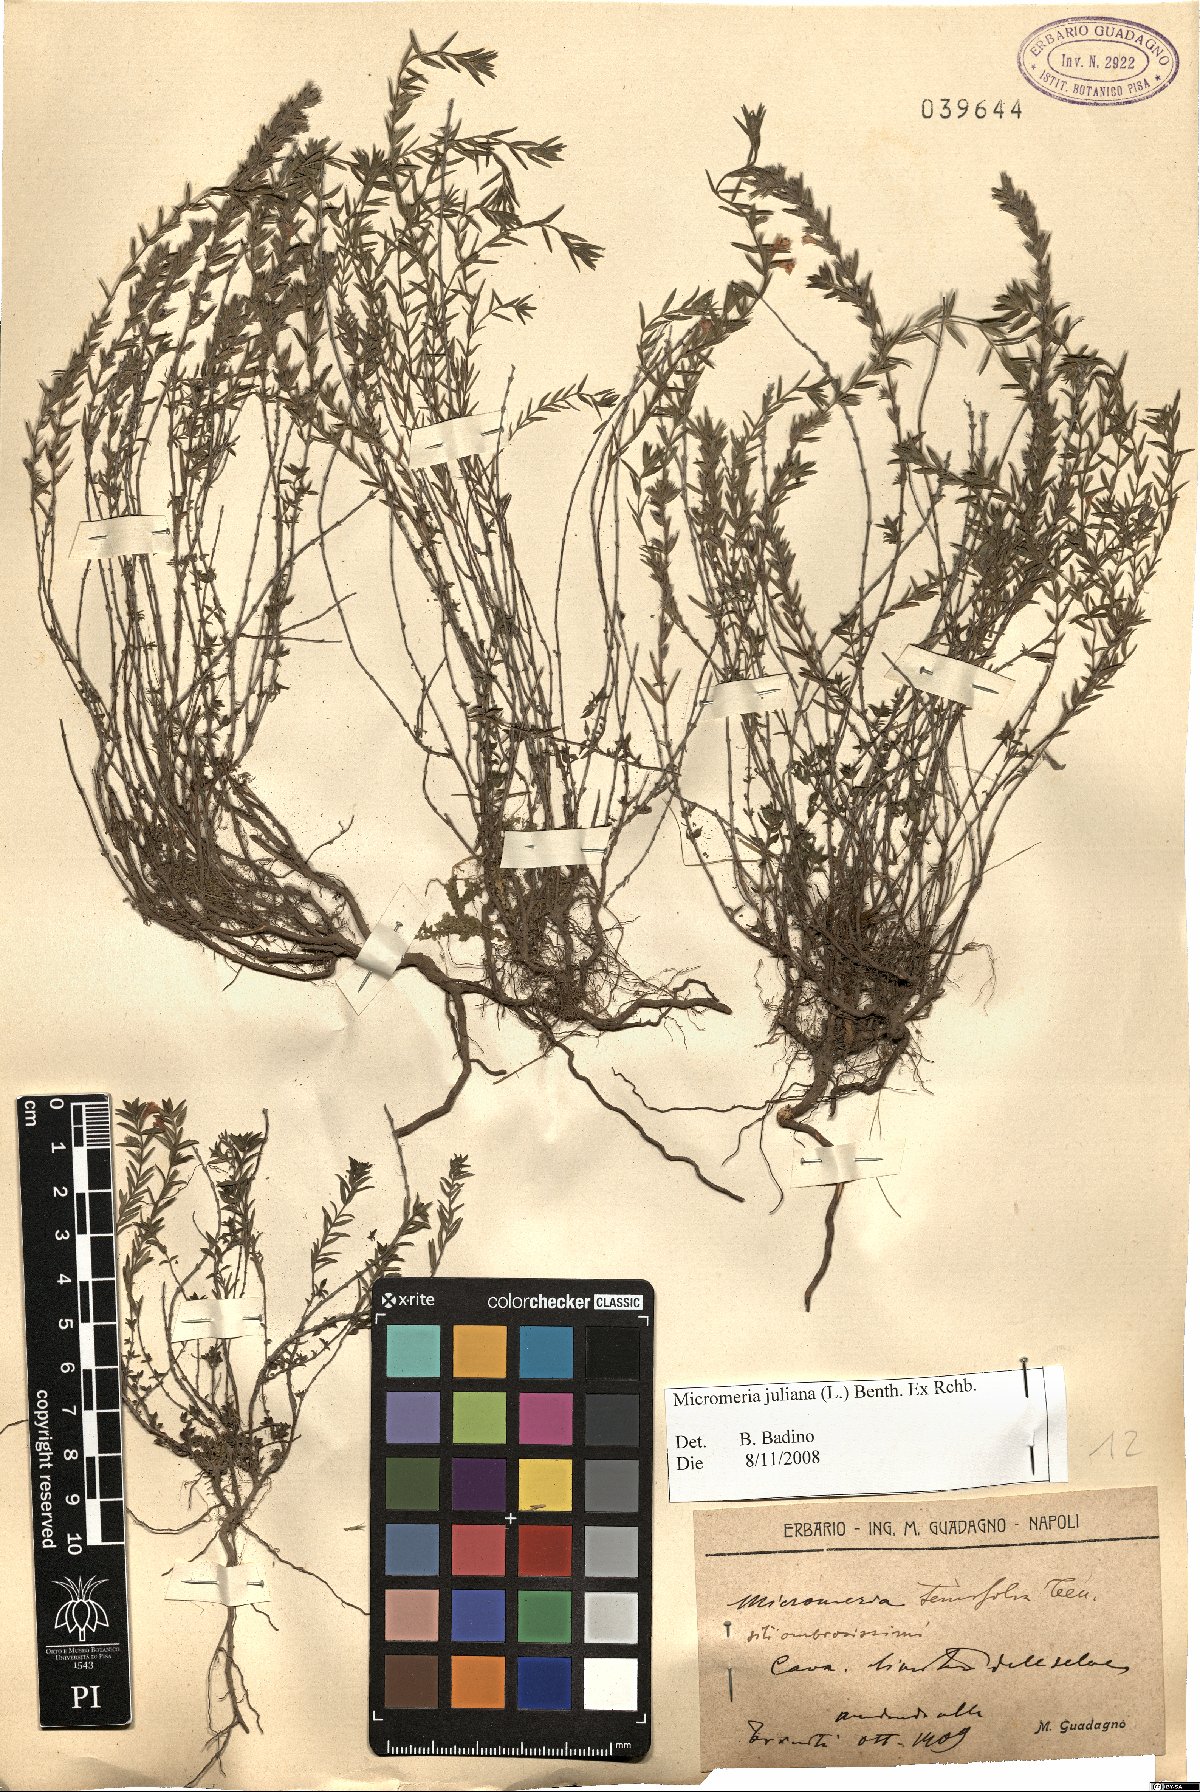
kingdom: Plantae
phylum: Tracheophyta
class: Magnoliopsida
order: Lamiales
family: Lamiaceae
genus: Micromeria
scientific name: Micromeria juliana
